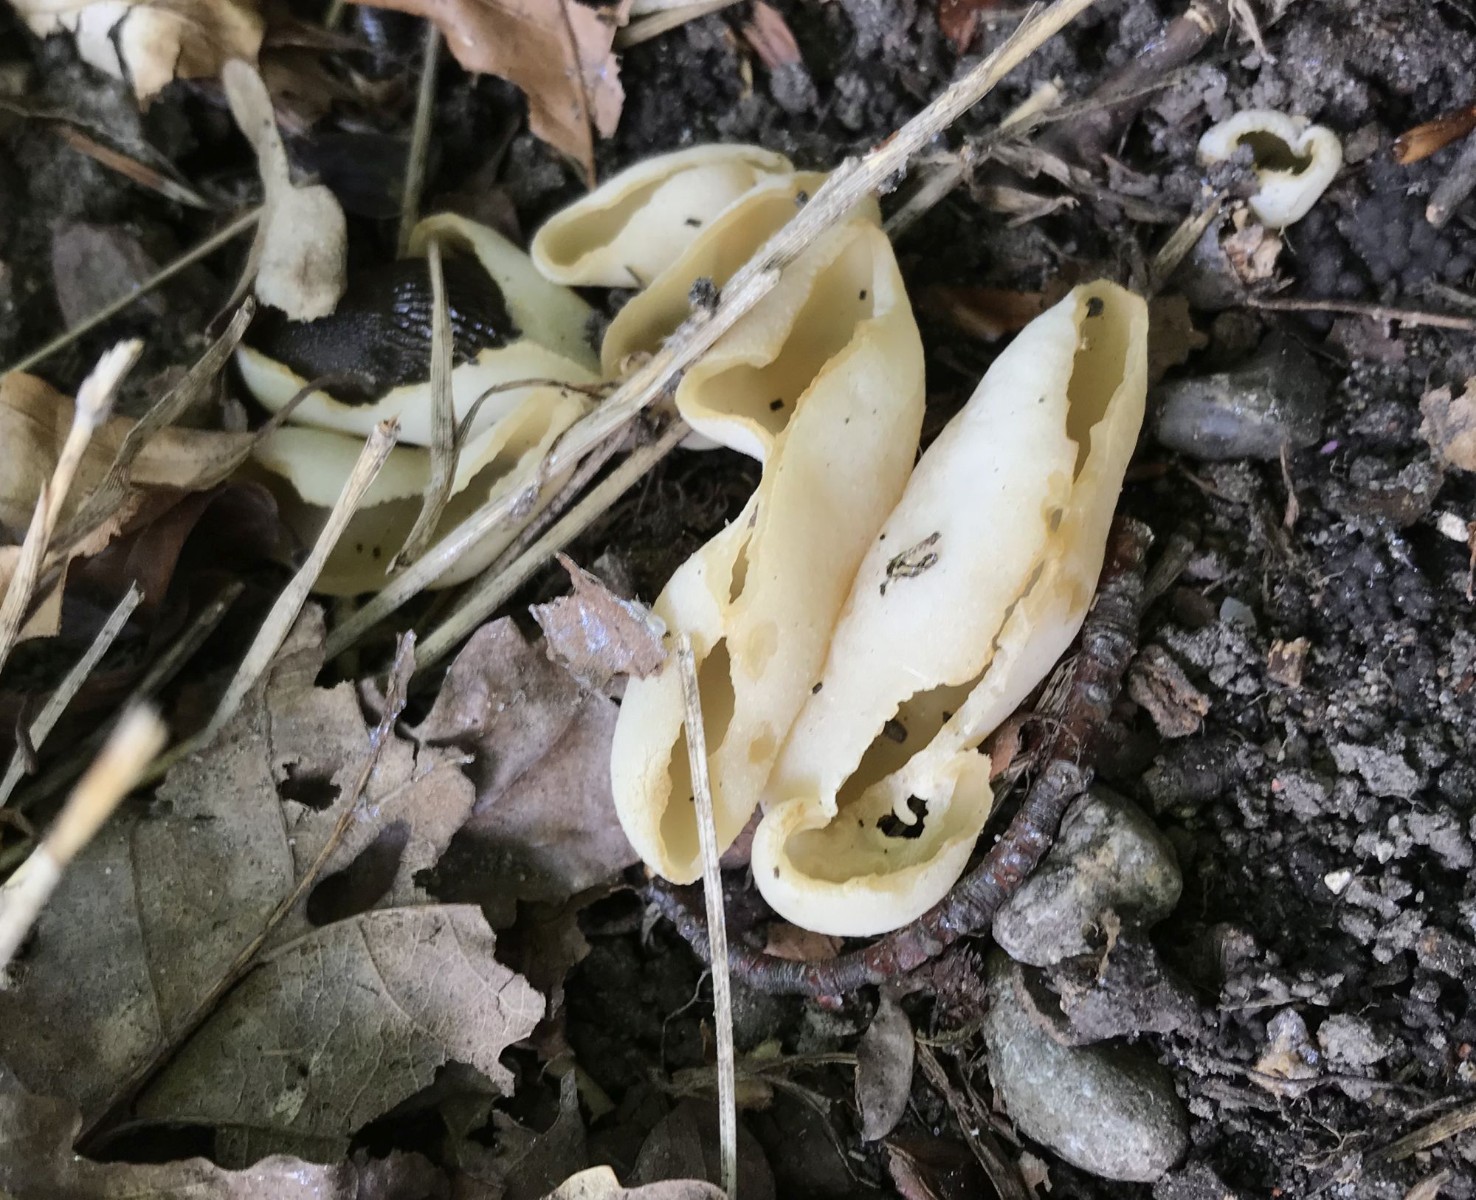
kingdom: Fungi
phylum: Ascomycota
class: Pezizomycetes
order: Pezizales
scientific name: Pezizales
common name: bægersvampordenen
